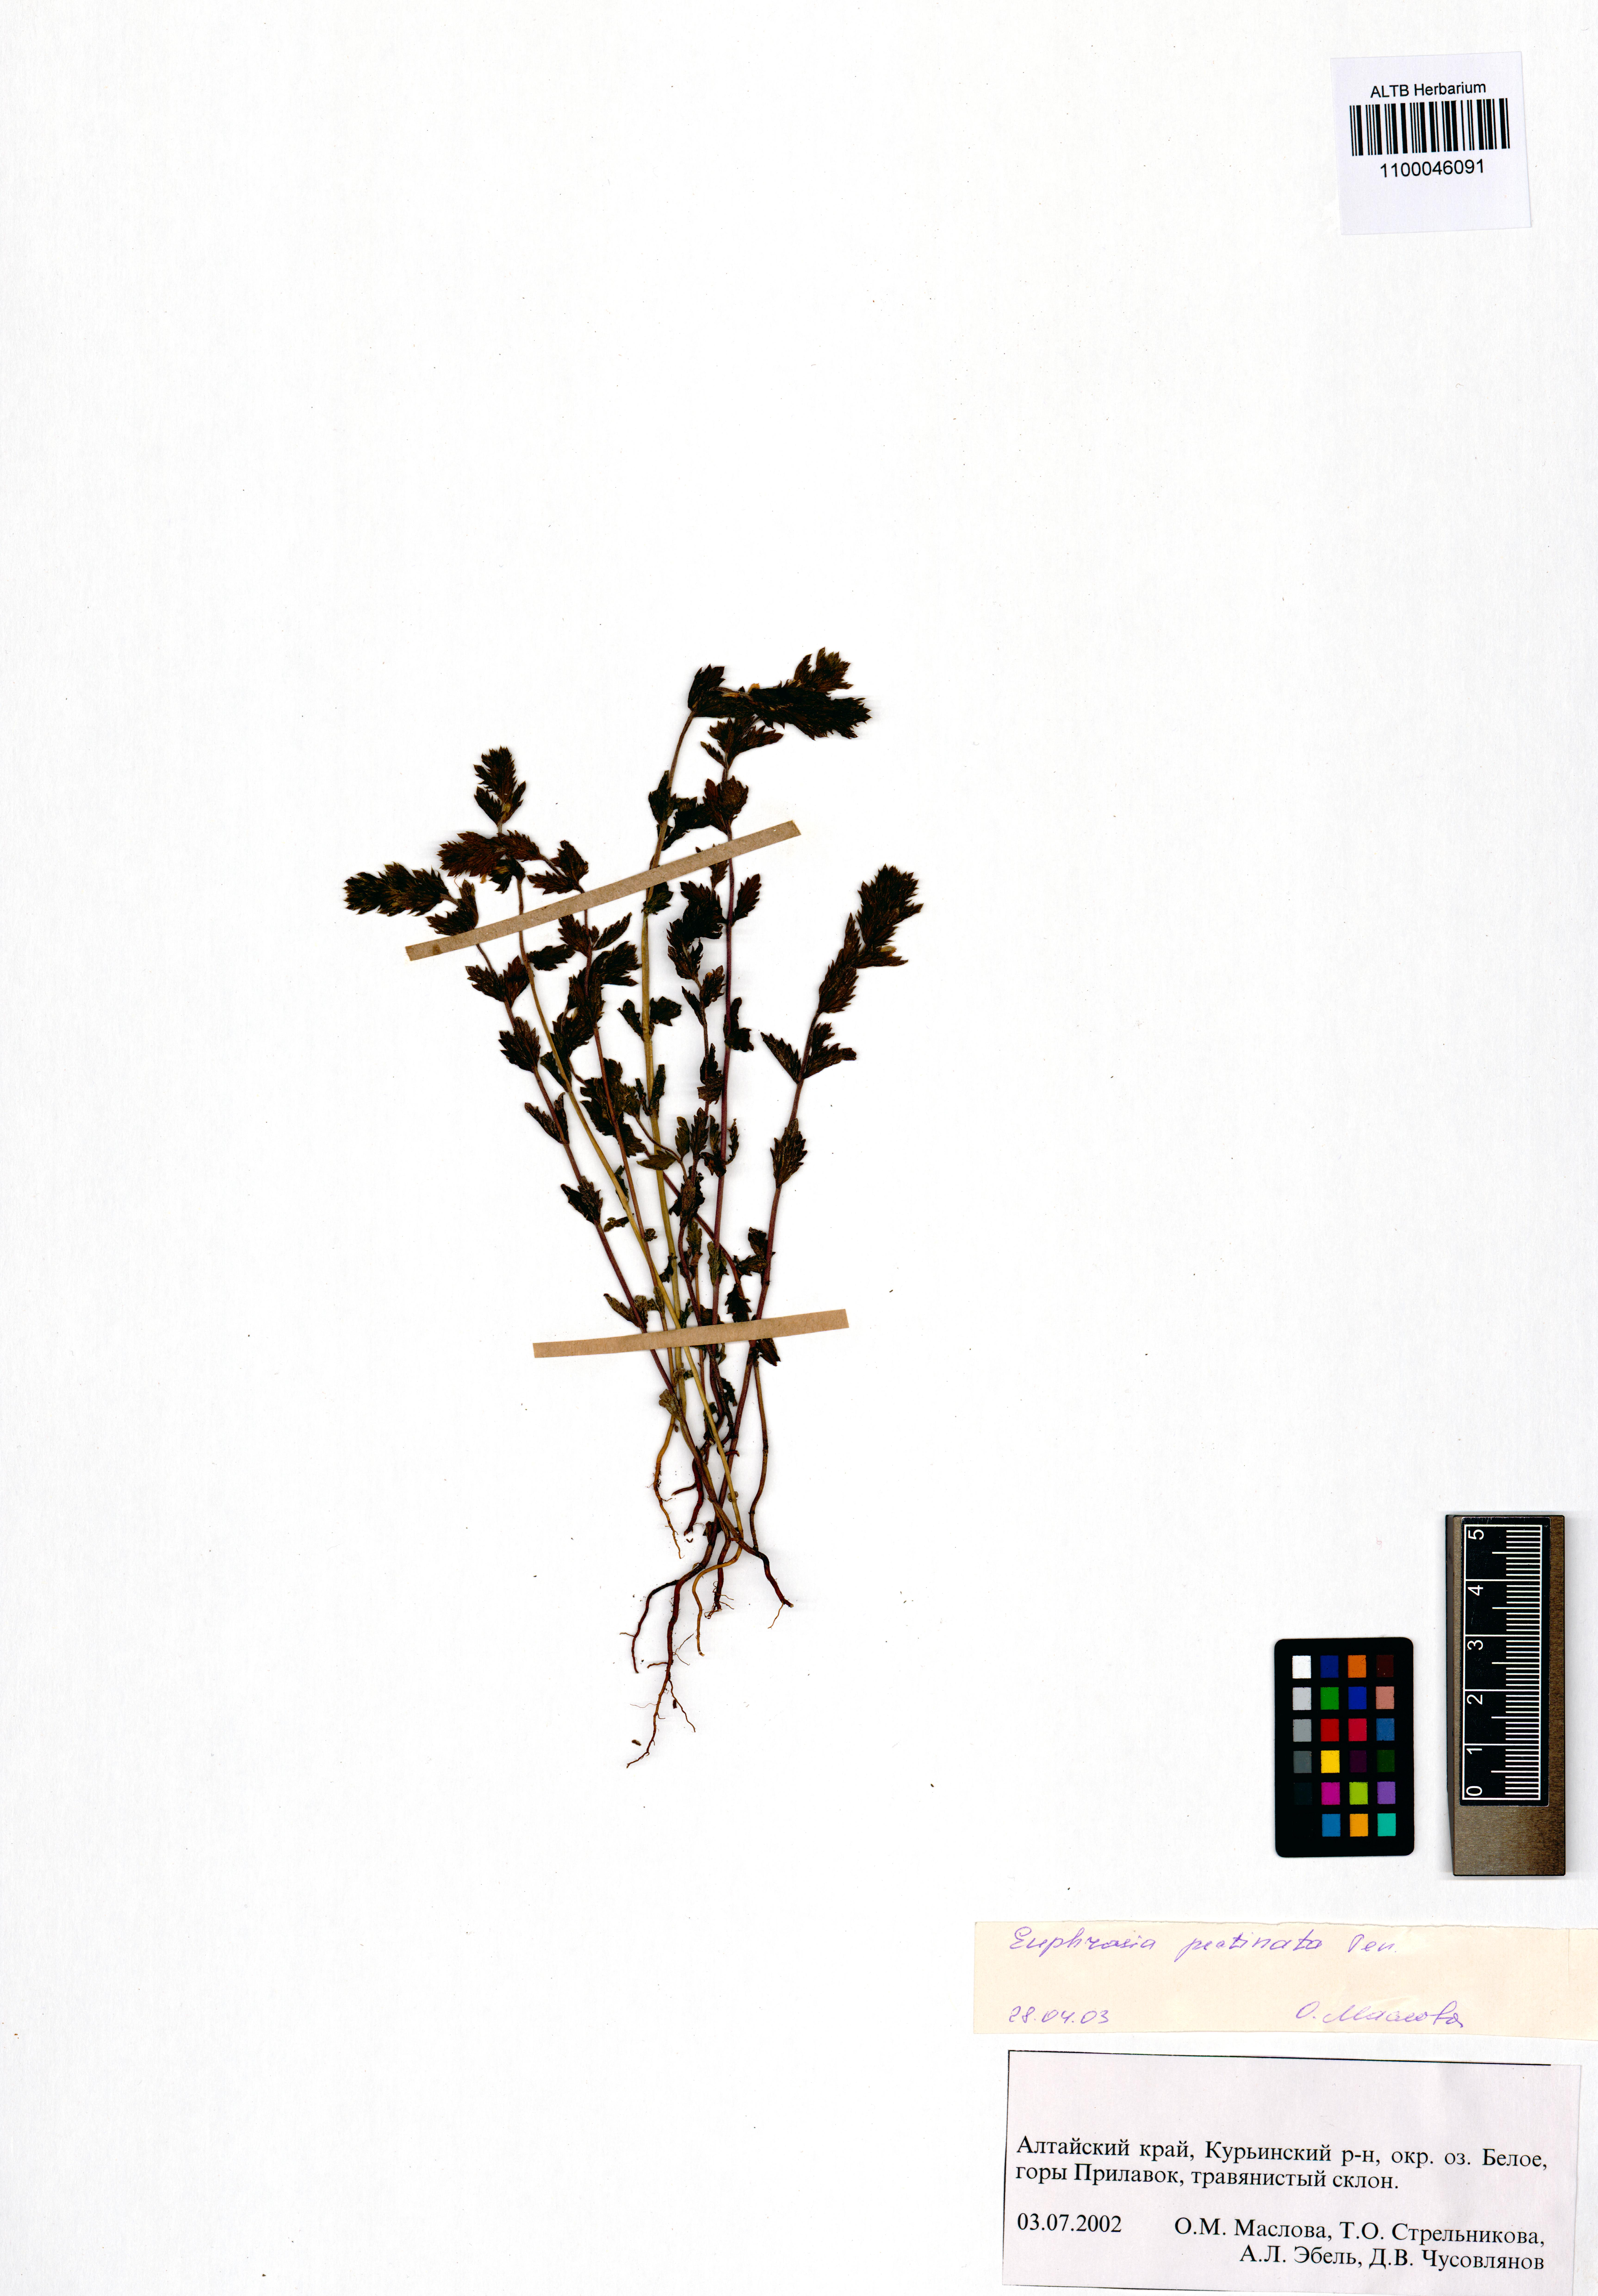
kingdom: Plantae
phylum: Tracheophyta
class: Magnoliopsida
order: Lamiales
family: Orobanchaceae
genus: Euphrasia
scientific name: Euphrasia pectinata
